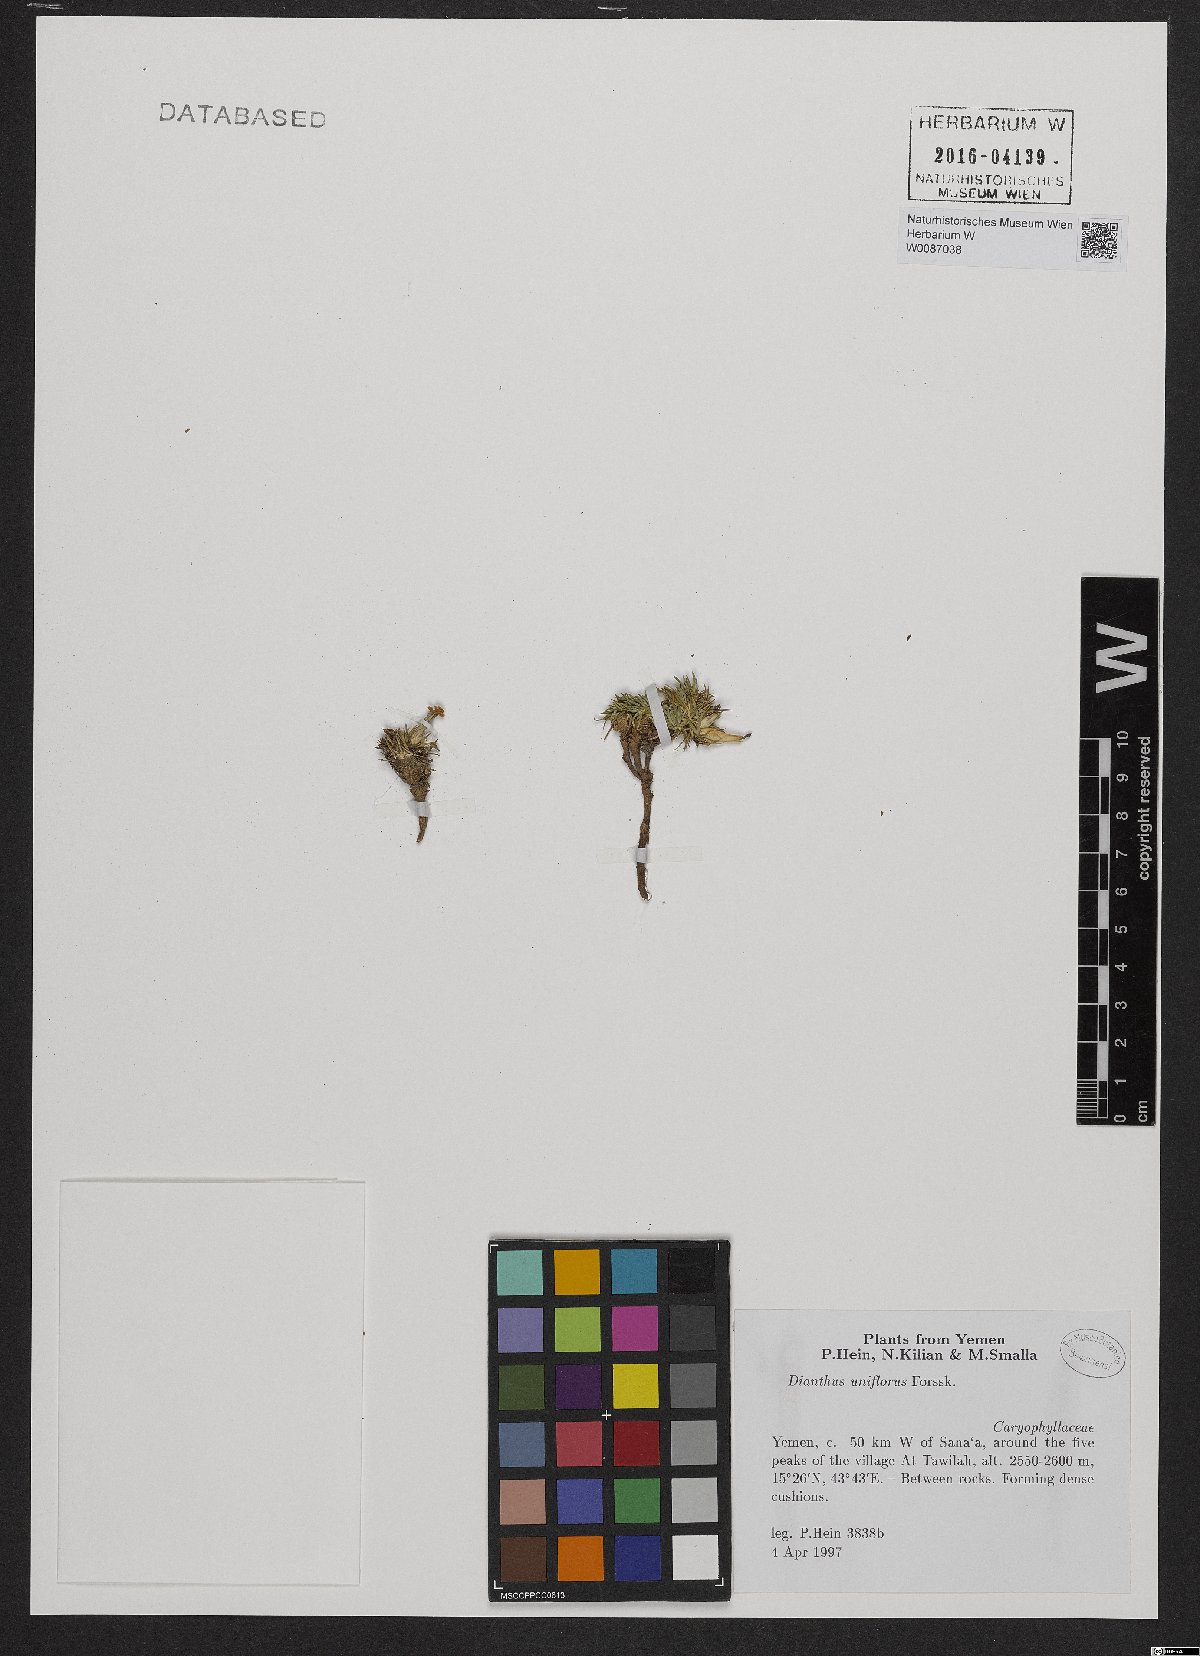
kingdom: Plantae
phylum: Tracheophyta
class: Magnoliopsida
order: Caryophyllales
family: Caryophyllaceae
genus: Dianthus
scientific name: Dianthus uniflorus
